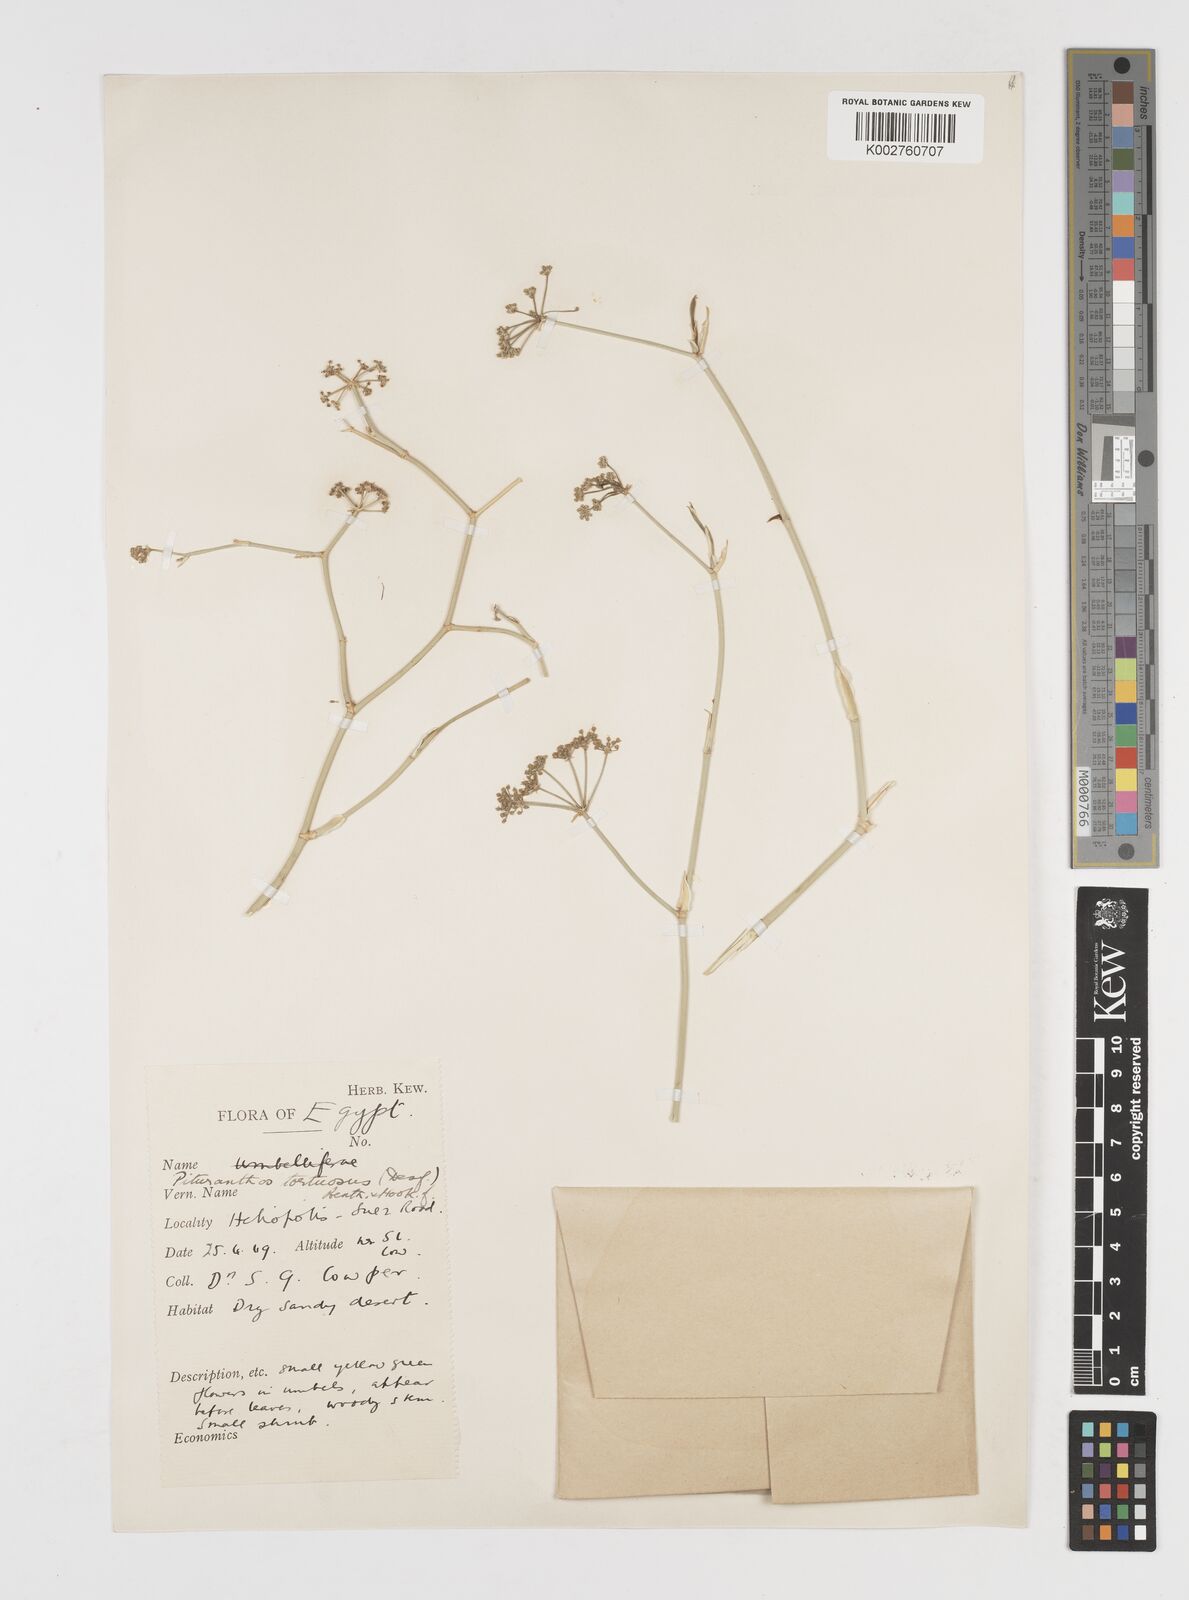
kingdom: Plantae
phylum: Tracheophyta
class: Magnoliopsida
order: Apiales
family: Apiaceae
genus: Deverra
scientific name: Deverra denudata
